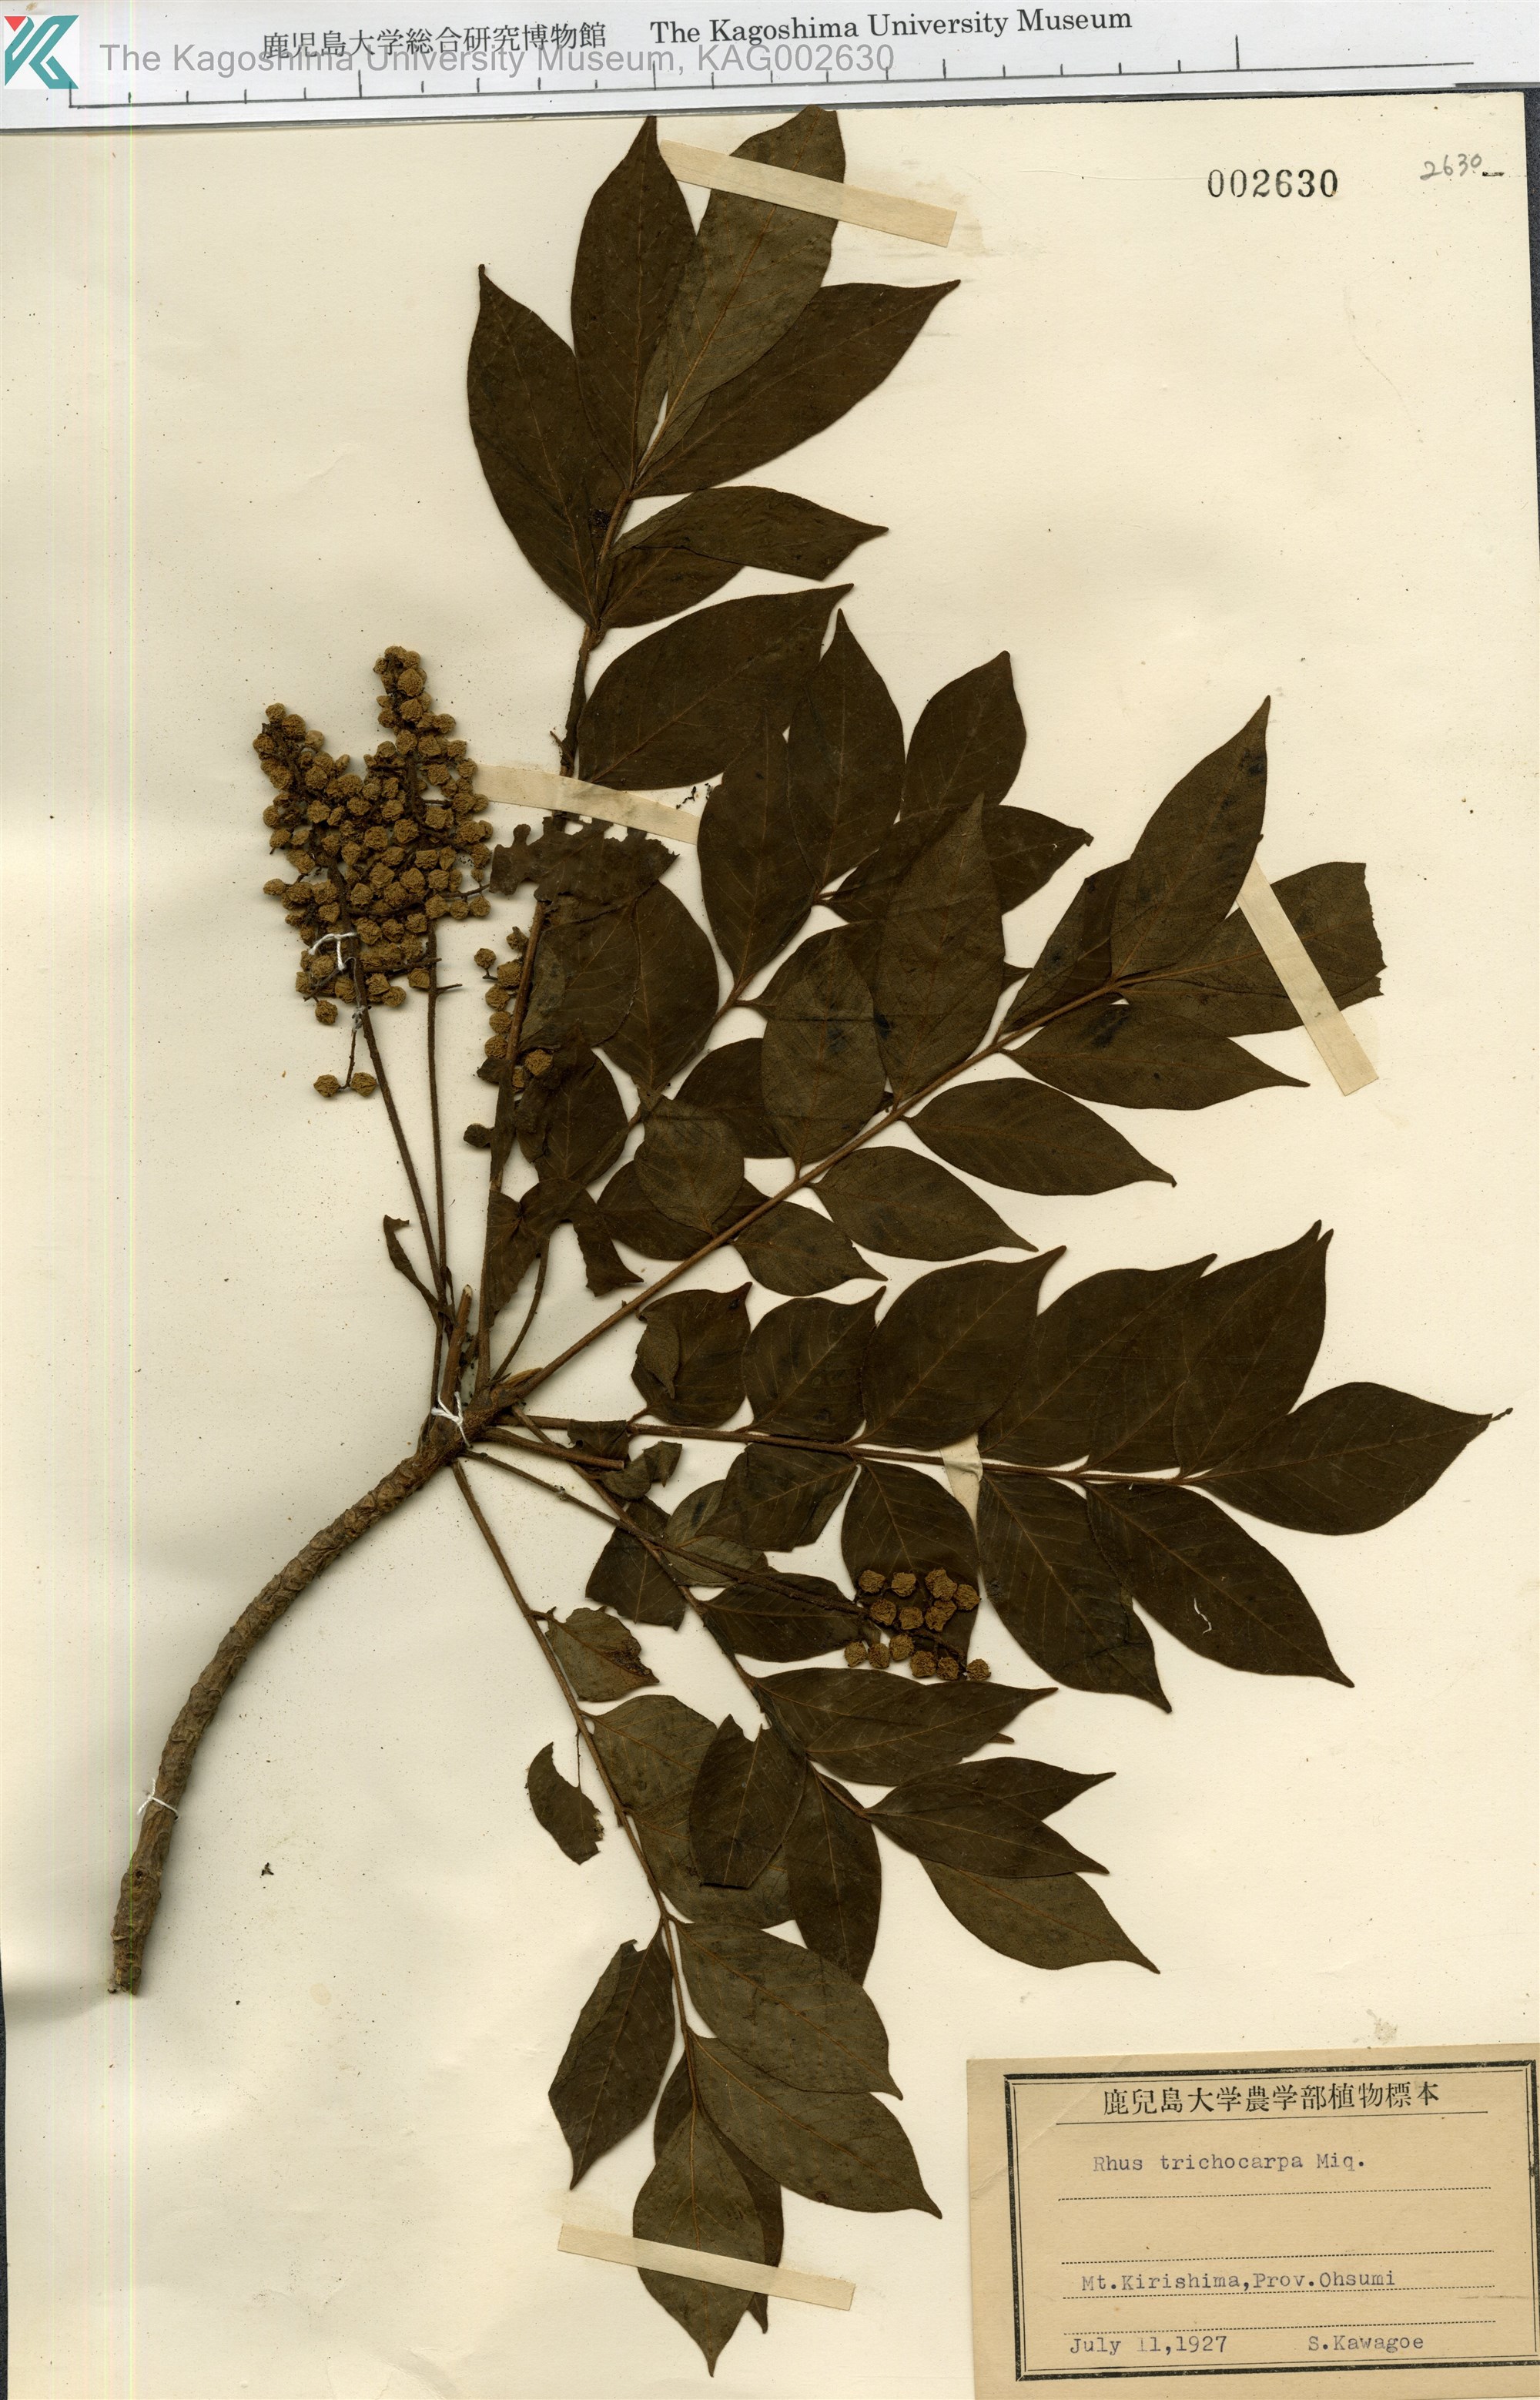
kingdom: Plantae
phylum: Tracheophyta
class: Magnoliopsida
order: Sapindales
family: Anacardiaceae
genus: Toxicodendron
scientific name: Toxicodendron trichocarpum
